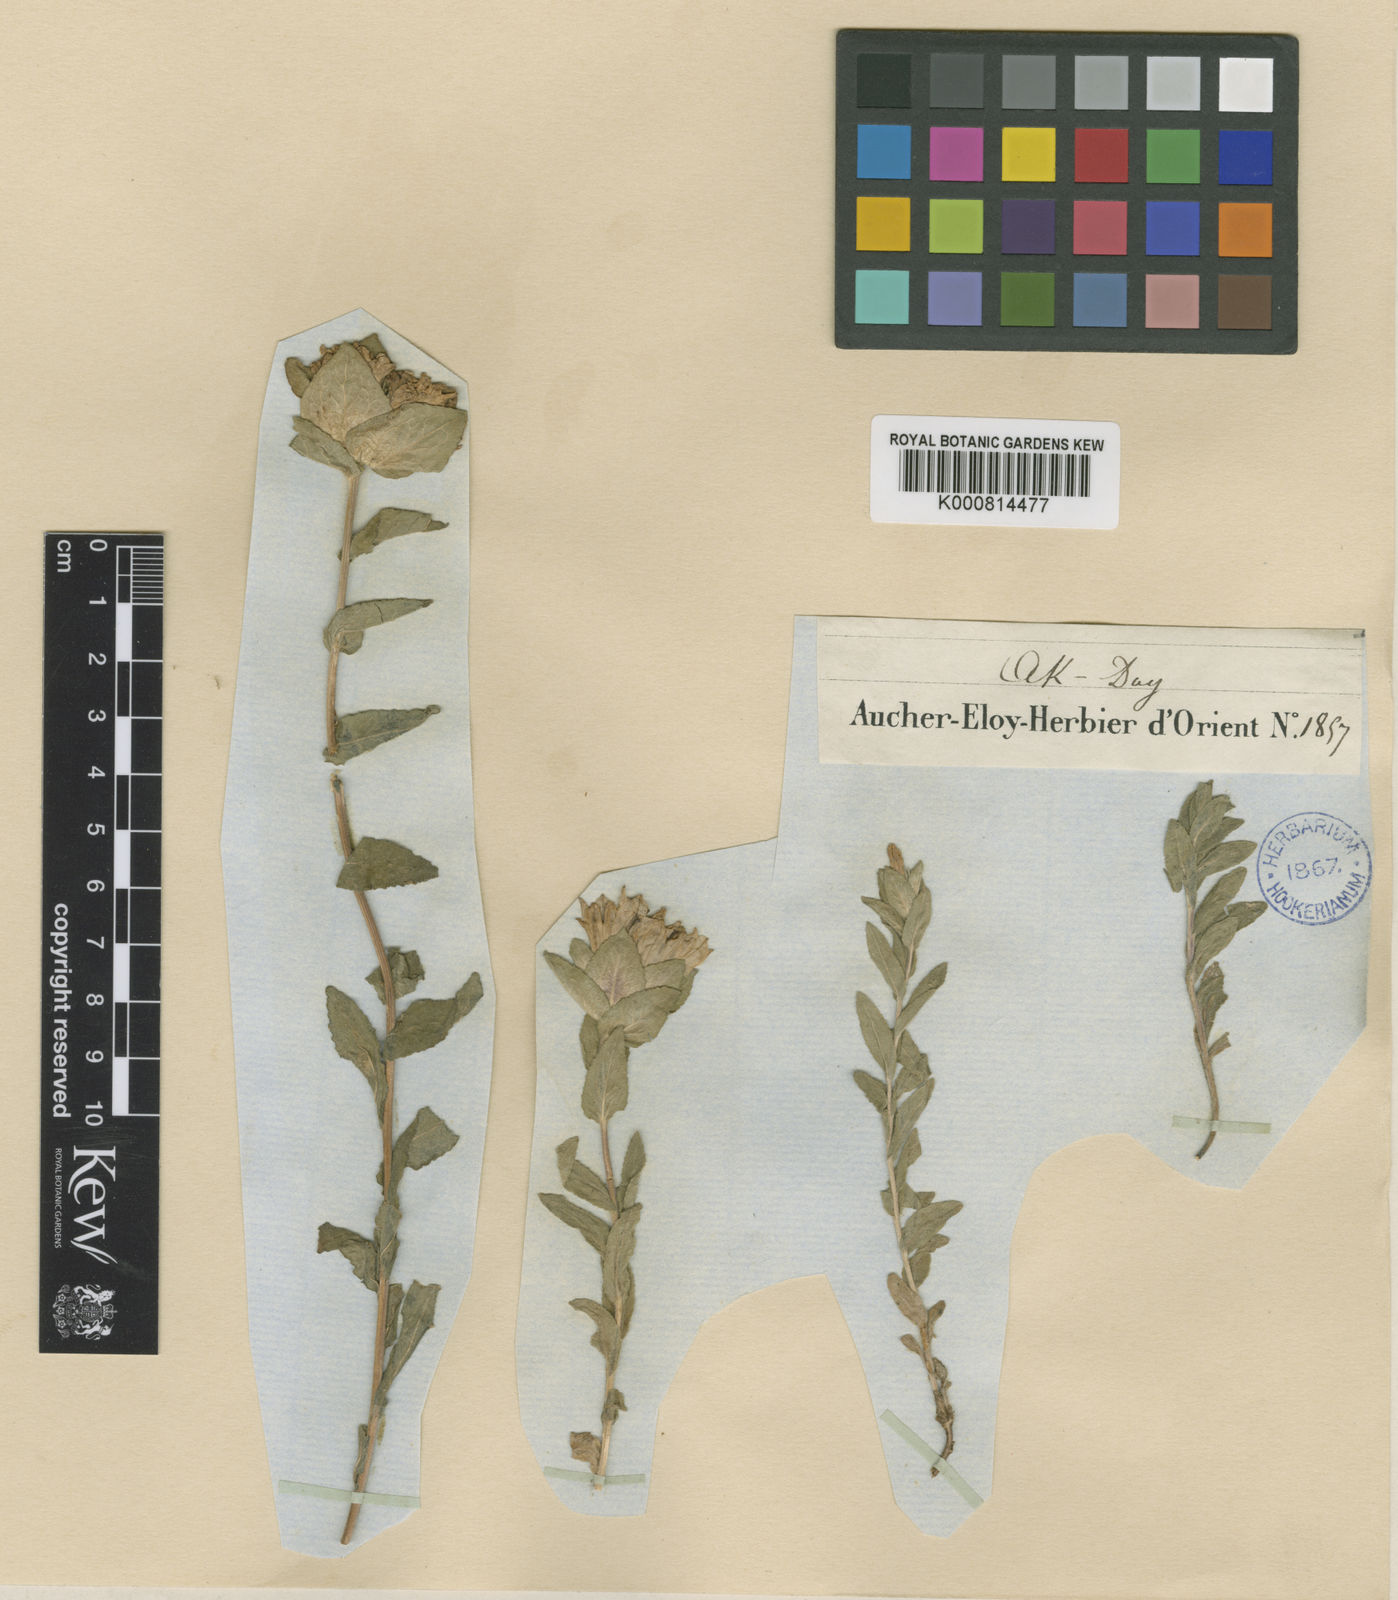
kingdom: Plantae
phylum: Tracheophyta
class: Magnoliopsida
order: Asterales
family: Campanulaceae
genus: Campanula
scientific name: Campanula involucrata
